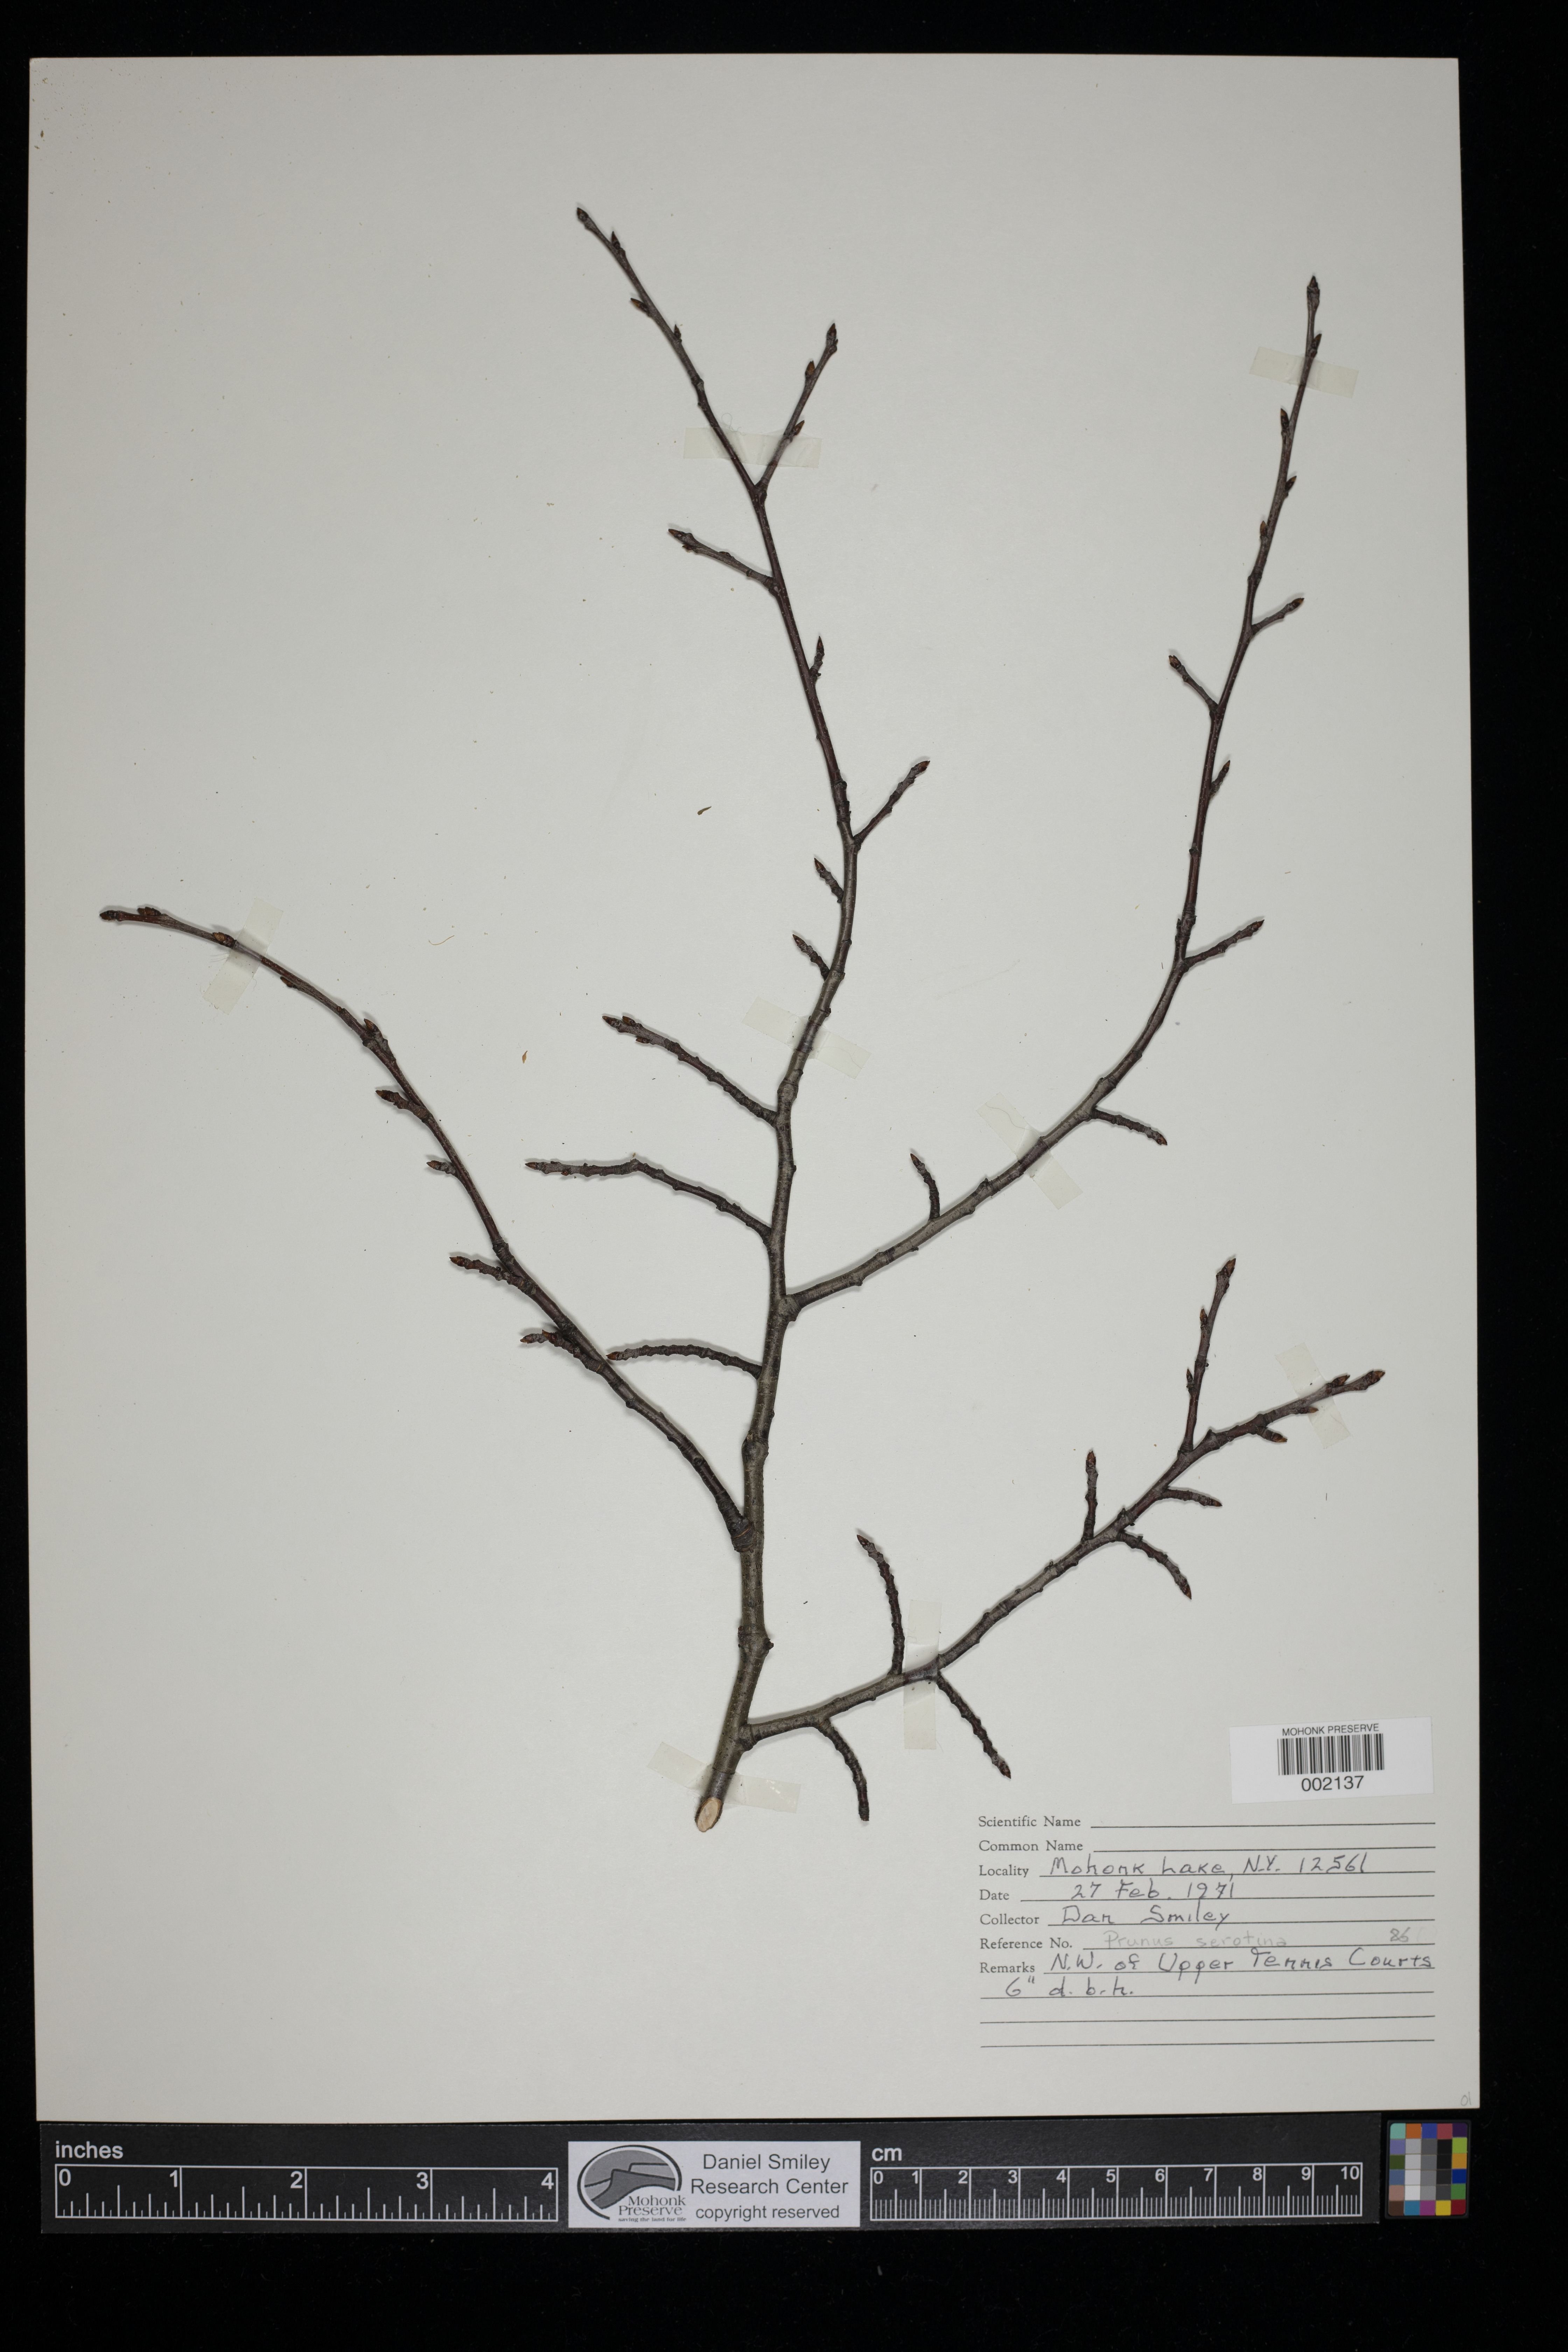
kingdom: Plantae
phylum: Tracheophyta
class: Magnoliopsida
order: Rosales
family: Rosaceae
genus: Prunus
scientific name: Prunus serotina
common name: Black cherry
